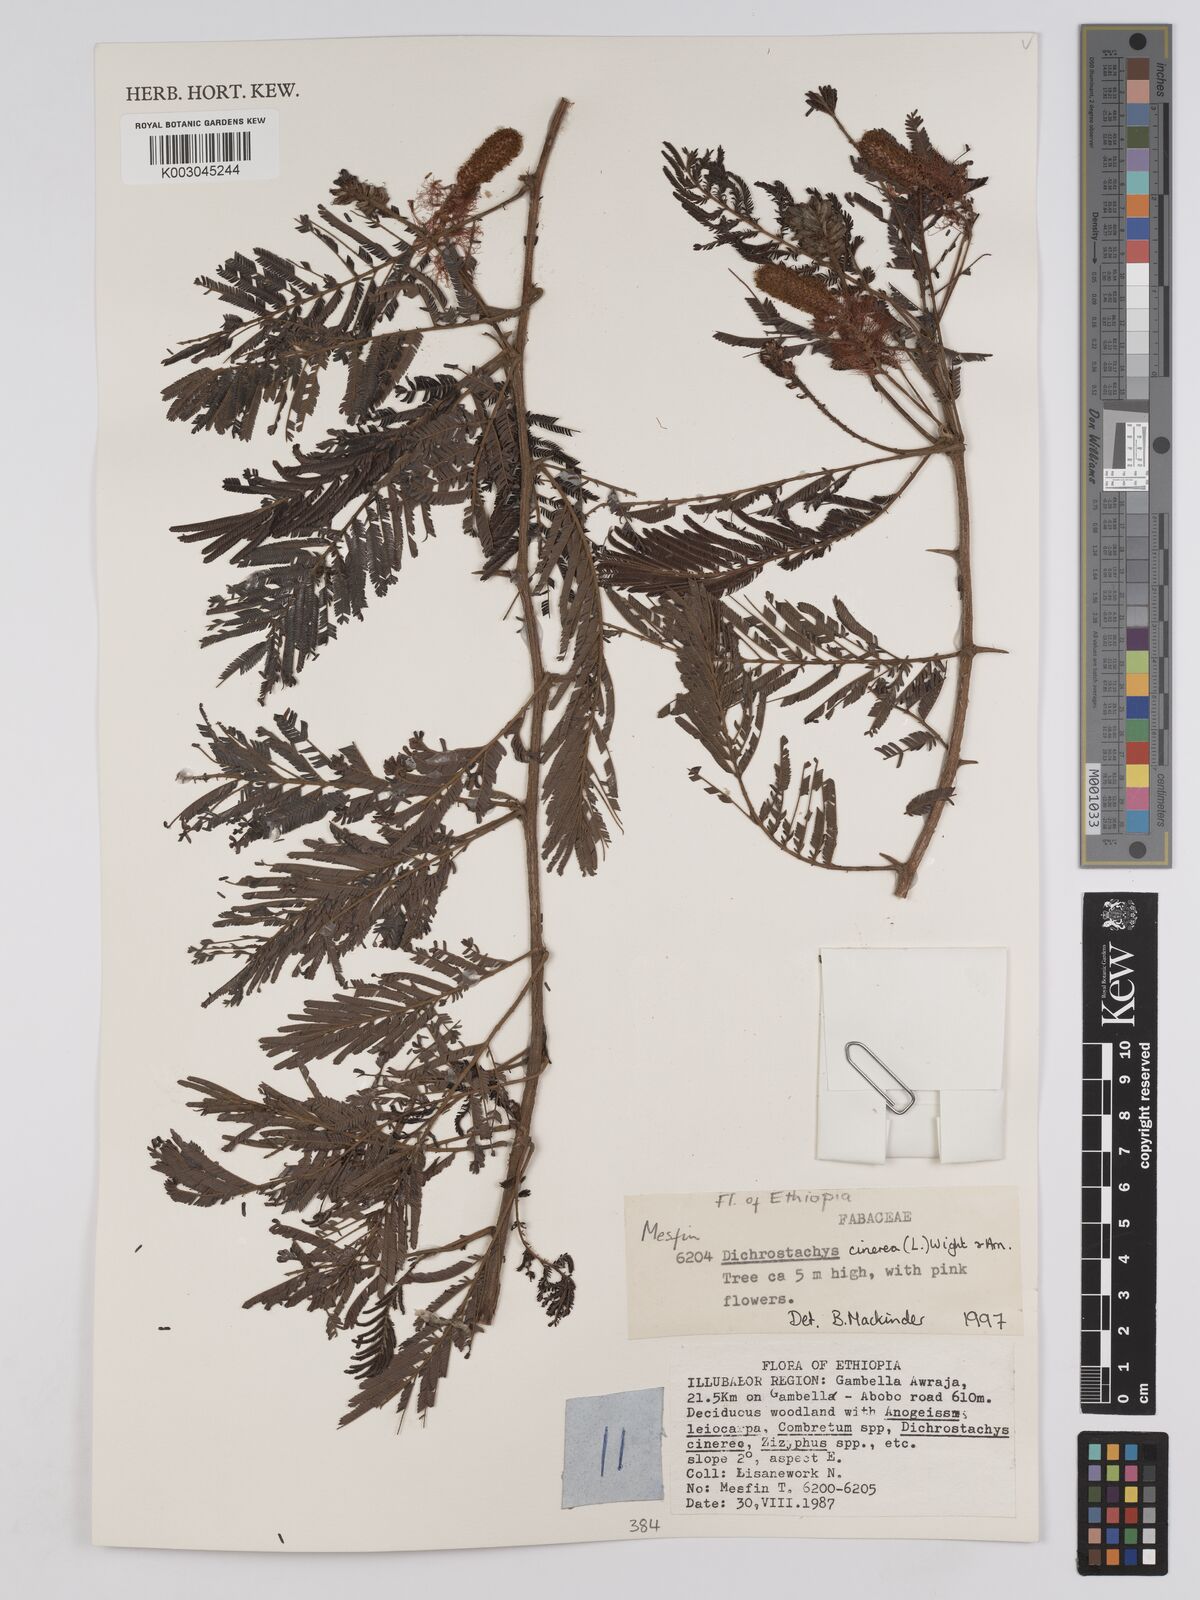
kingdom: Plantae
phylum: Tracheophyta
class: Magnoliopsida
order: Fabales
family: Fabaceae
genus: Dichrostachys
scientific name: Dichrostachys cinerea
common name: Sicklebush
